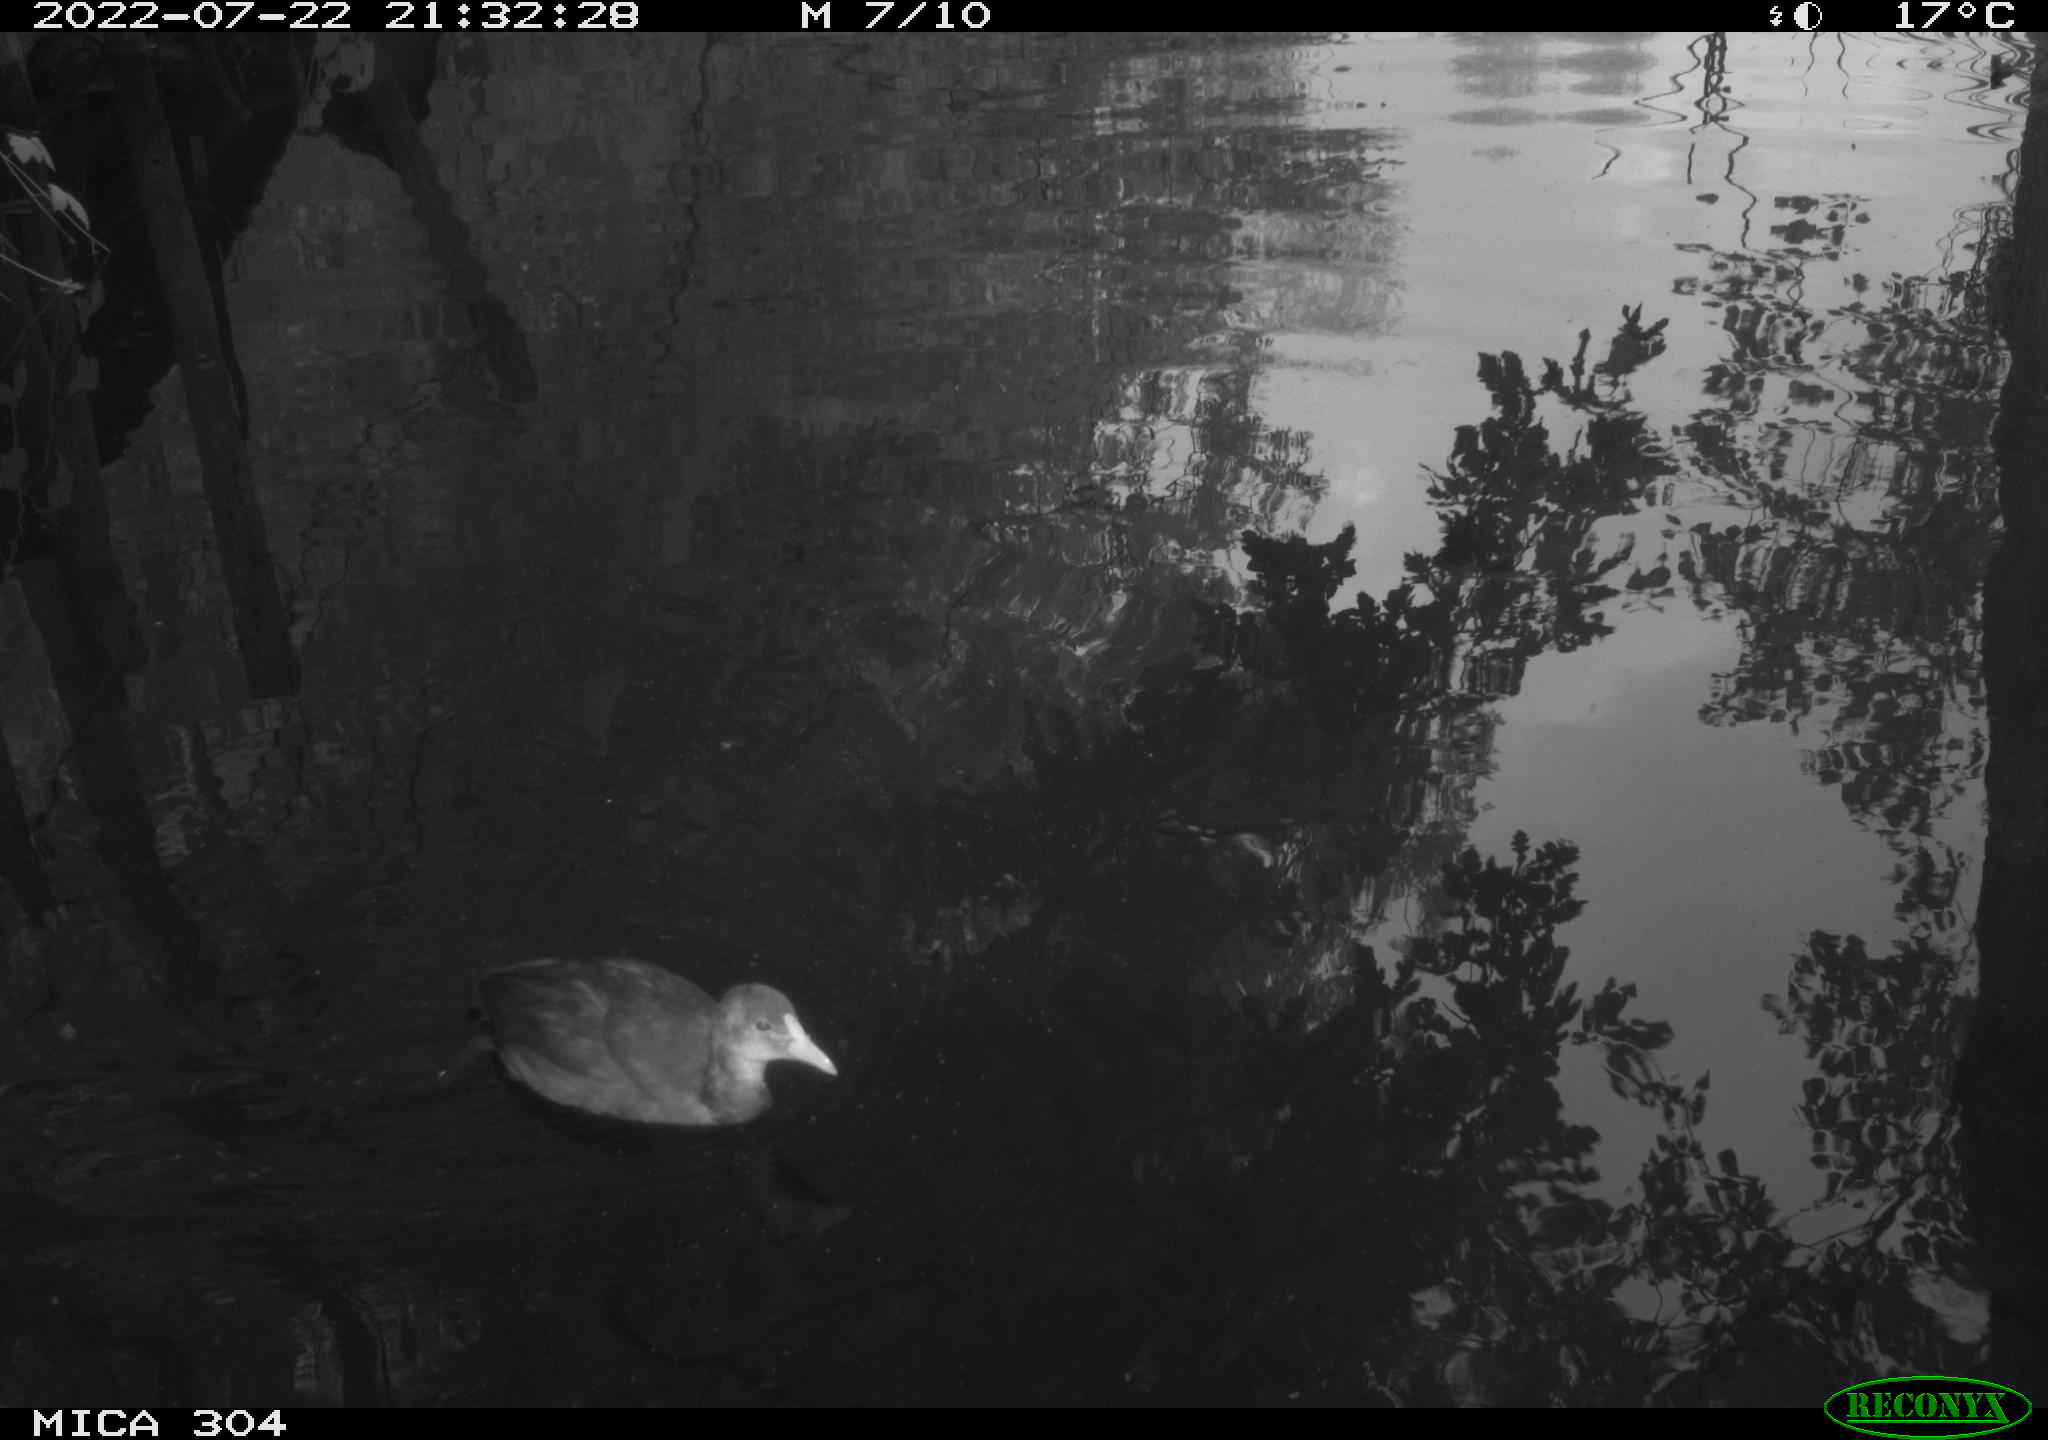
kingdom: Animalia
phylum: Chordata
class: Aves
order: Gruiformes
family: Rallidae
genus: Fulica
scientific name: Fulica atra
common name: Eurasian coot
